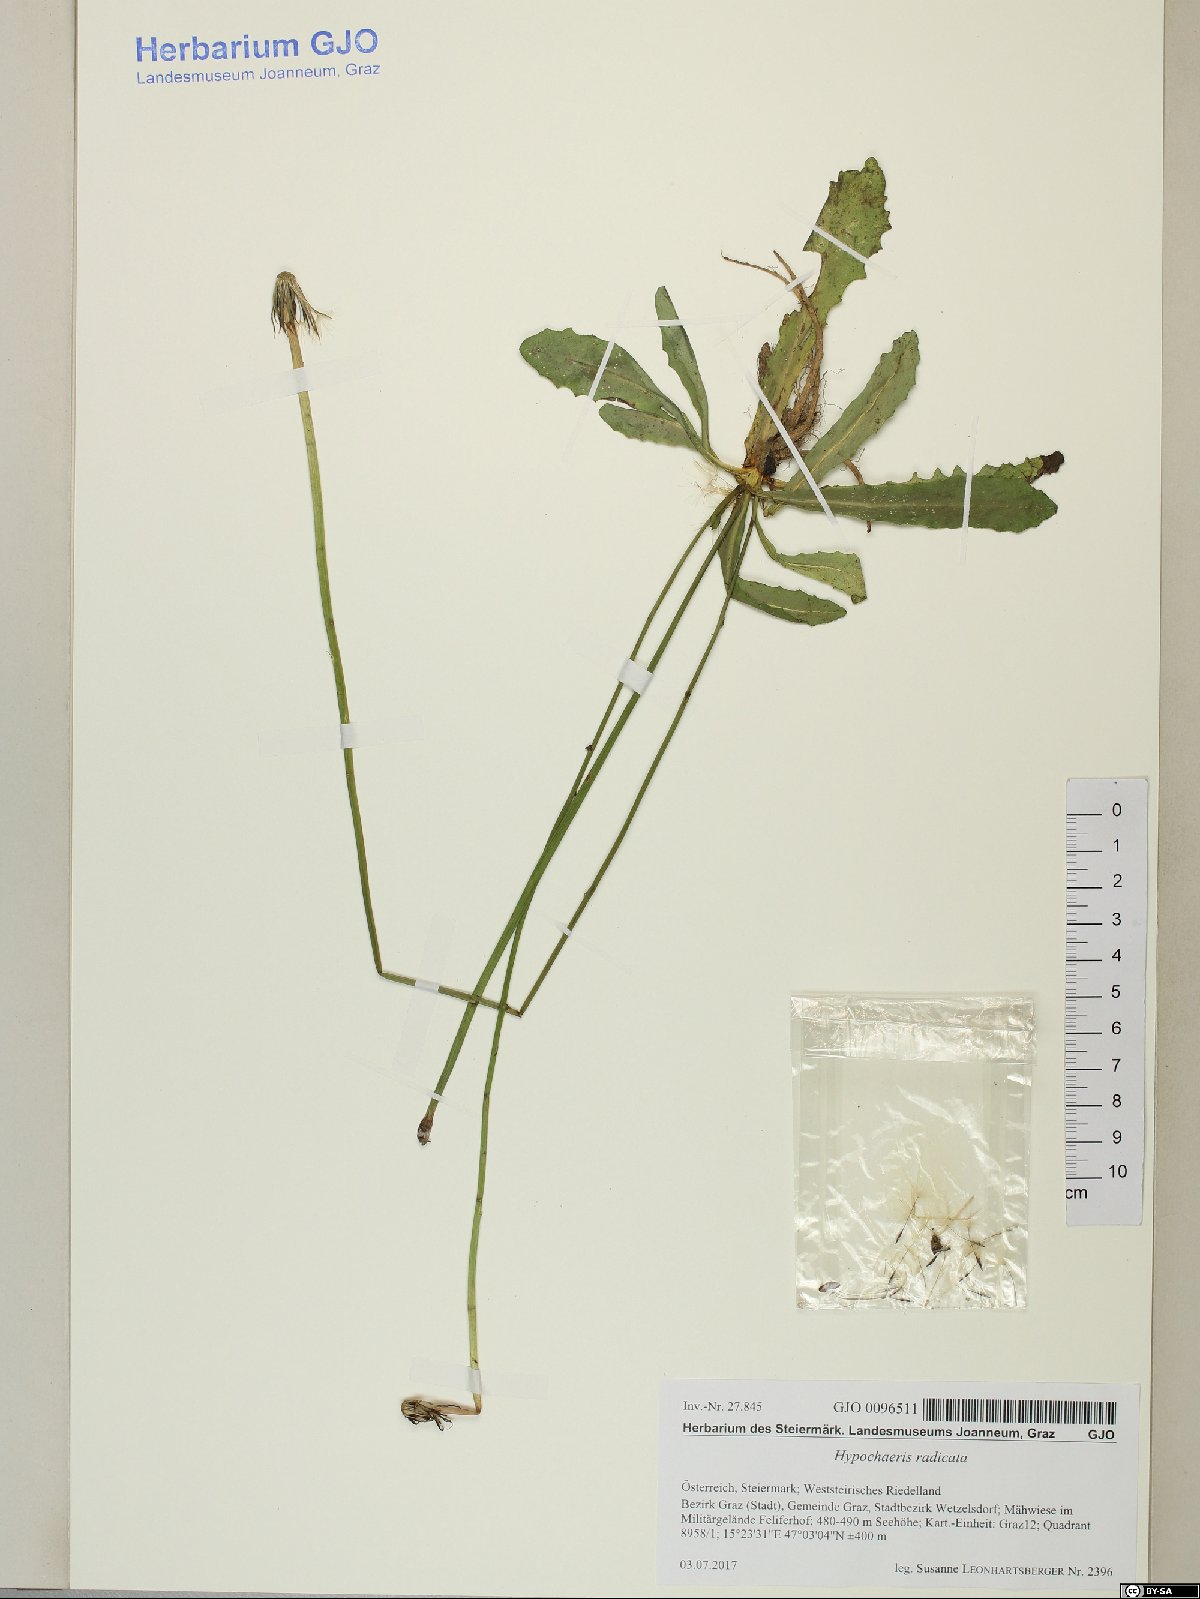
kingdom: Plantae
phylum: Tracheophyta
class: Magnoliopsida
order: Asterales
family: Asteraceae
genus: Hypochaeris
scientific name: Hypochaeris radicata
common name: Flatweed
